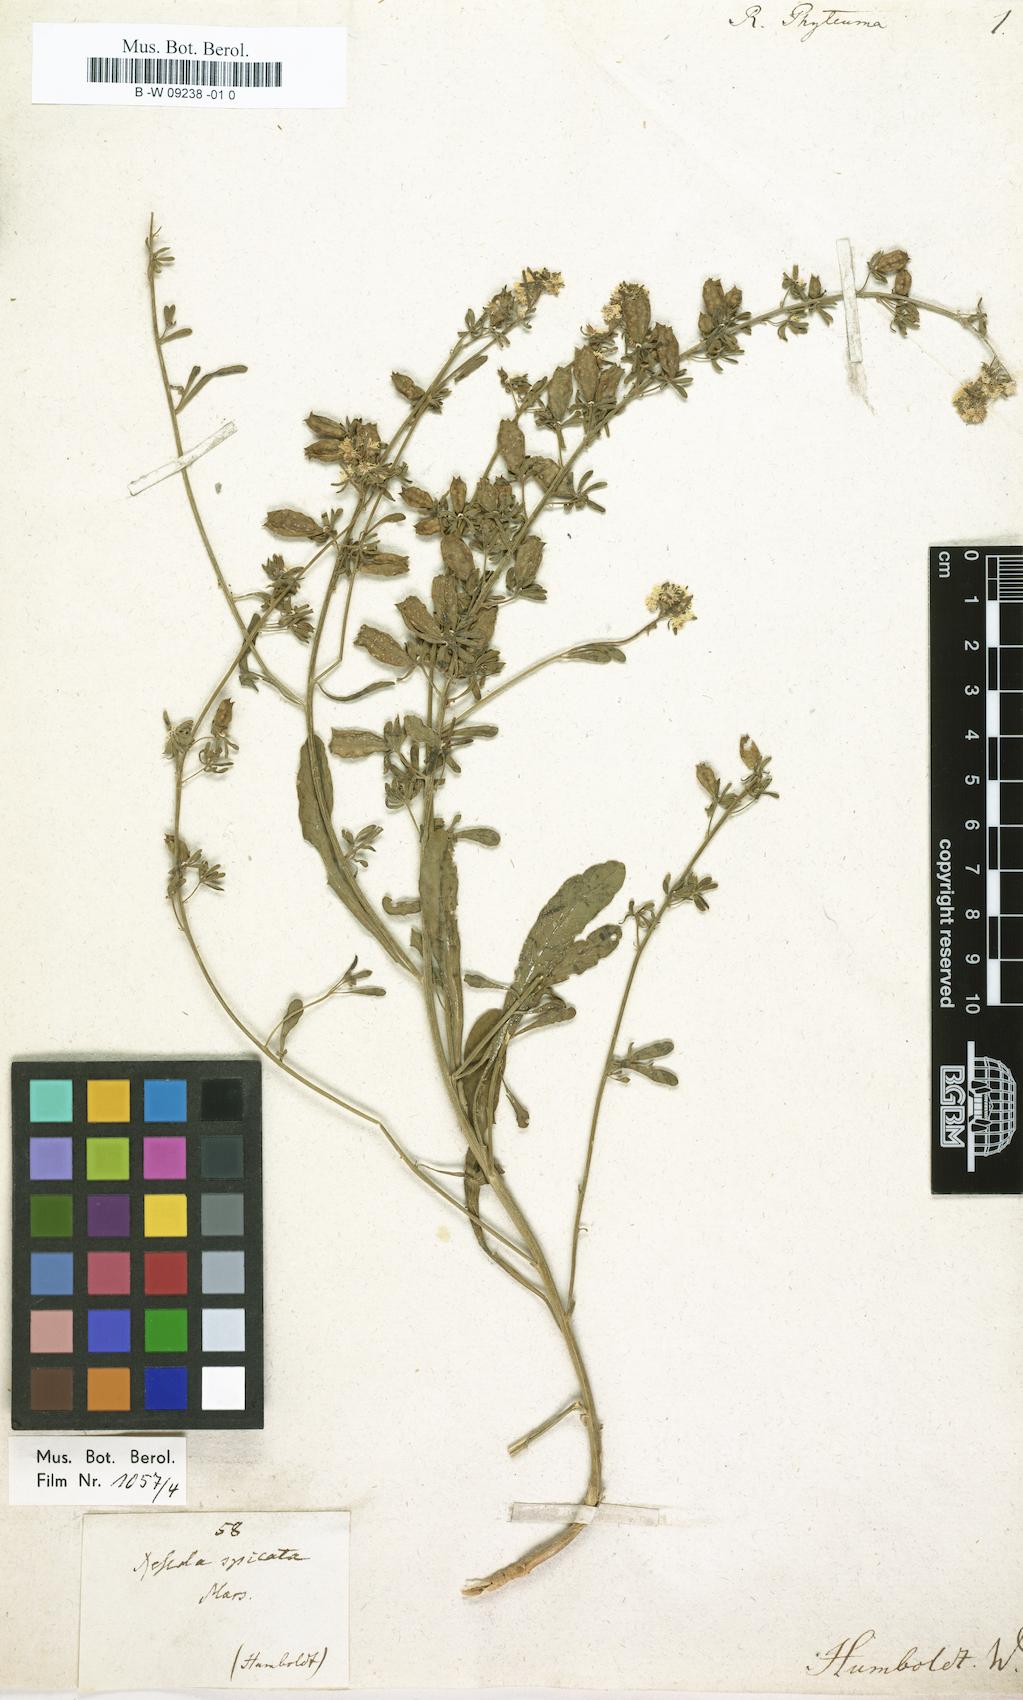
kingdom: Plantae
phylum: Tracheophyta
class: Magnoliopsida
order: Brassicales
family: Resedaceae
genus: Reseda
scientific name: Reseda phyteuma
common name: Corn mignonette
